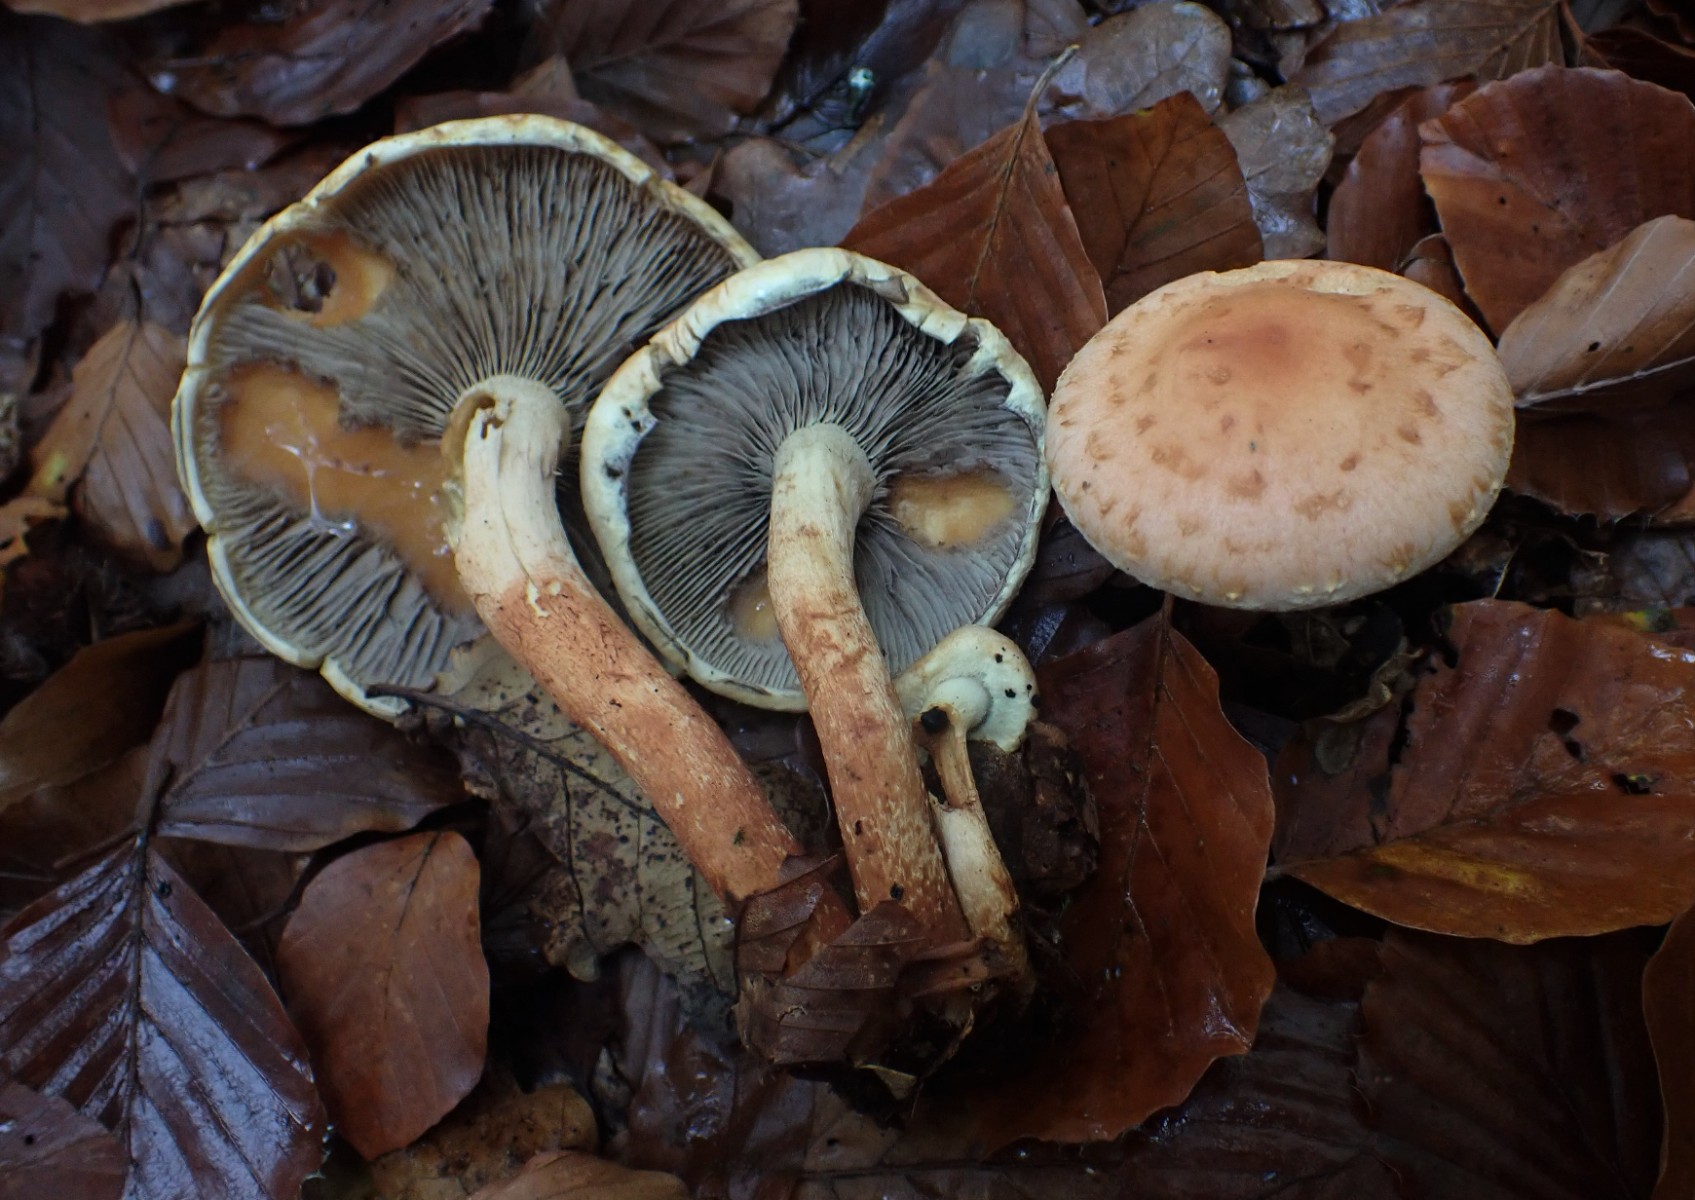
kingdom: Fungi
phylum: Basidiomycota
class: Agaricomycetes
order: Agaricales
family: Strophariaceae
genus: Hypholoma
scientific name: Hypholoma lateritium
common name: teglrød svovlhat
